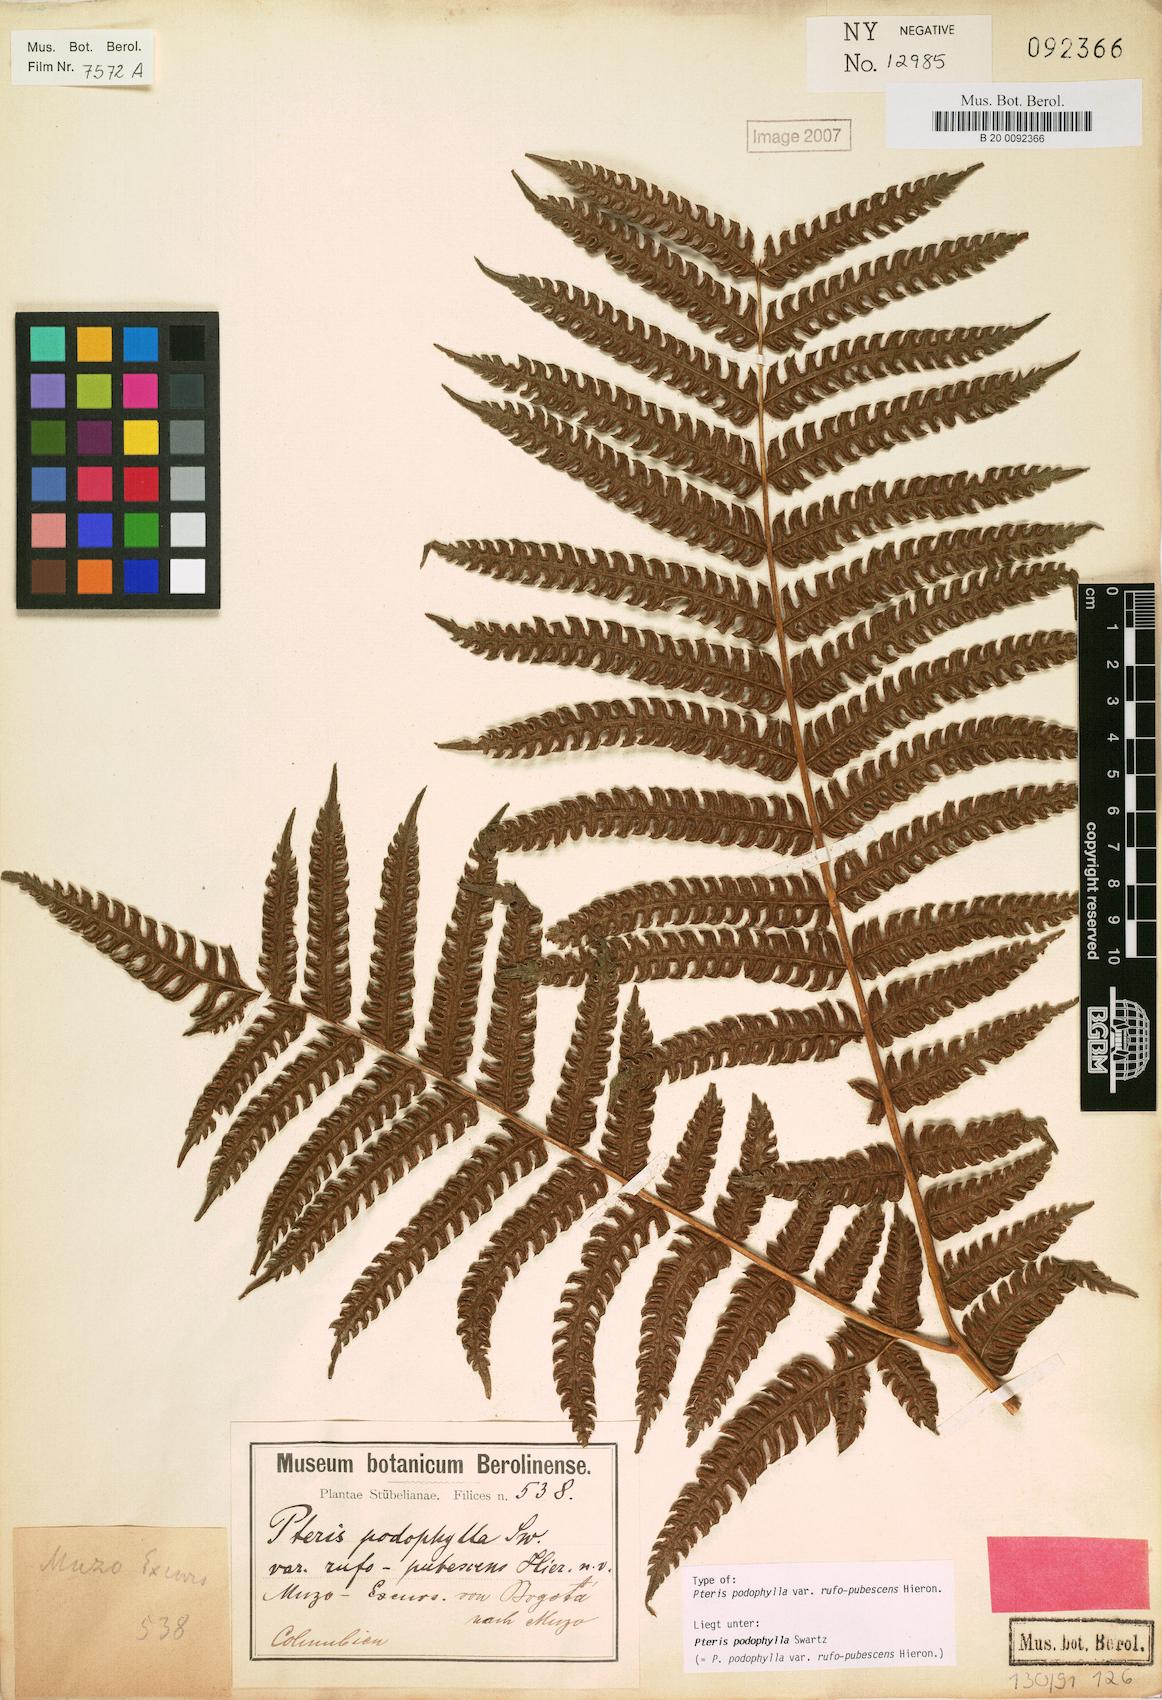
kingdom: Plantae
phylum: Tracheophyta
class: Polypodiopsida
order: Polypodiales
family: Pteridaceae
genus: Pteris
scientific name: Pteris podophylla
